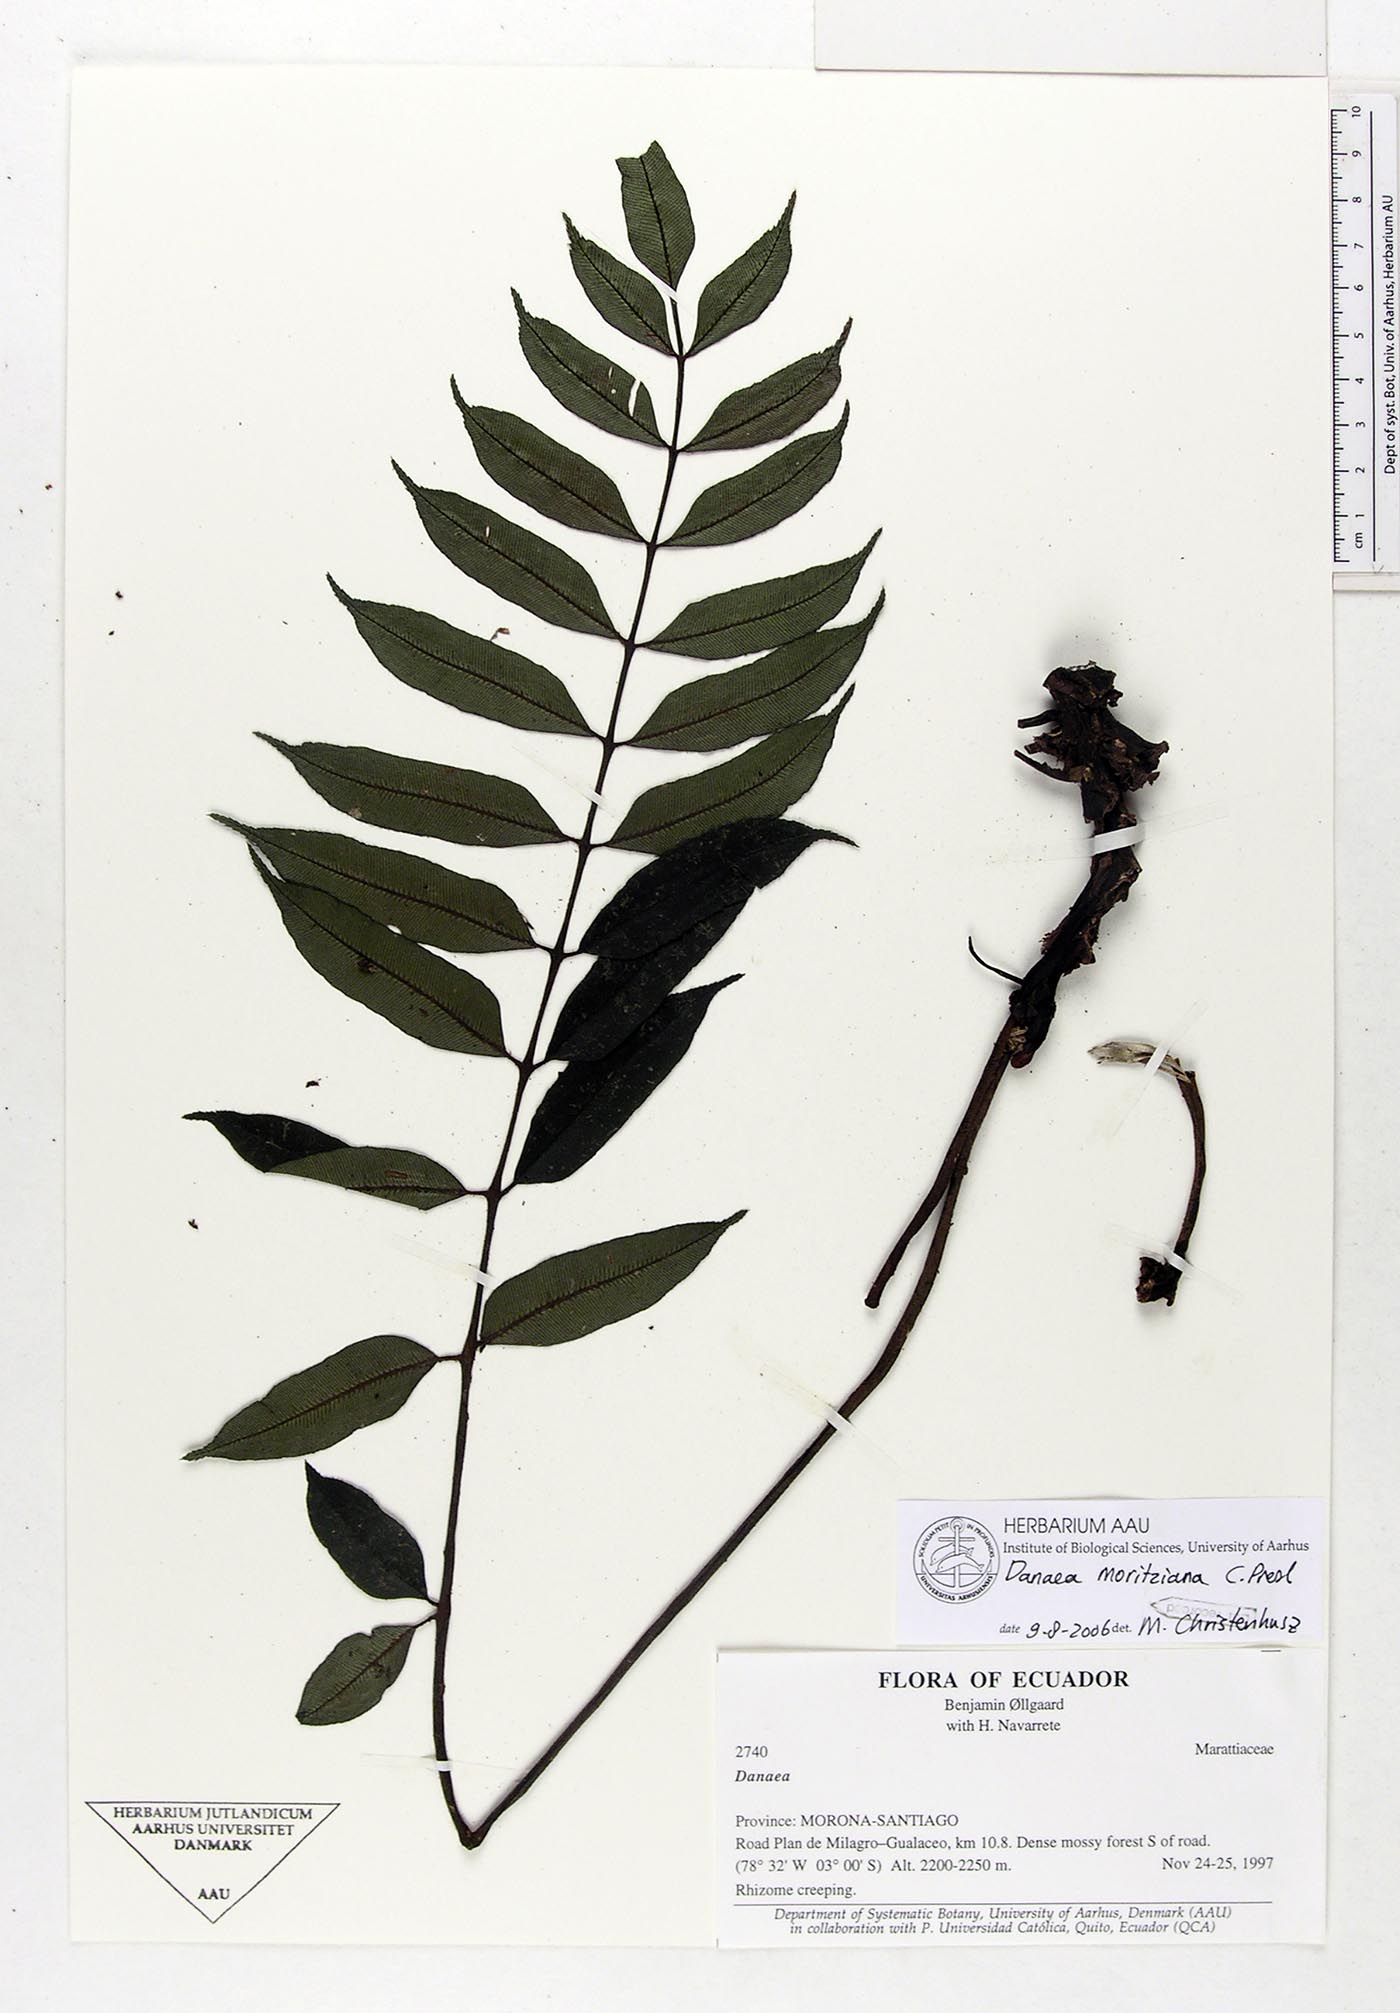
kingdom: Plantae
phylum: Tracheophyta
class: Polypodiopsida
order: Marattiales
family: Marattiaceae
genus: Danaea
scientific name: Danaea moritziana
